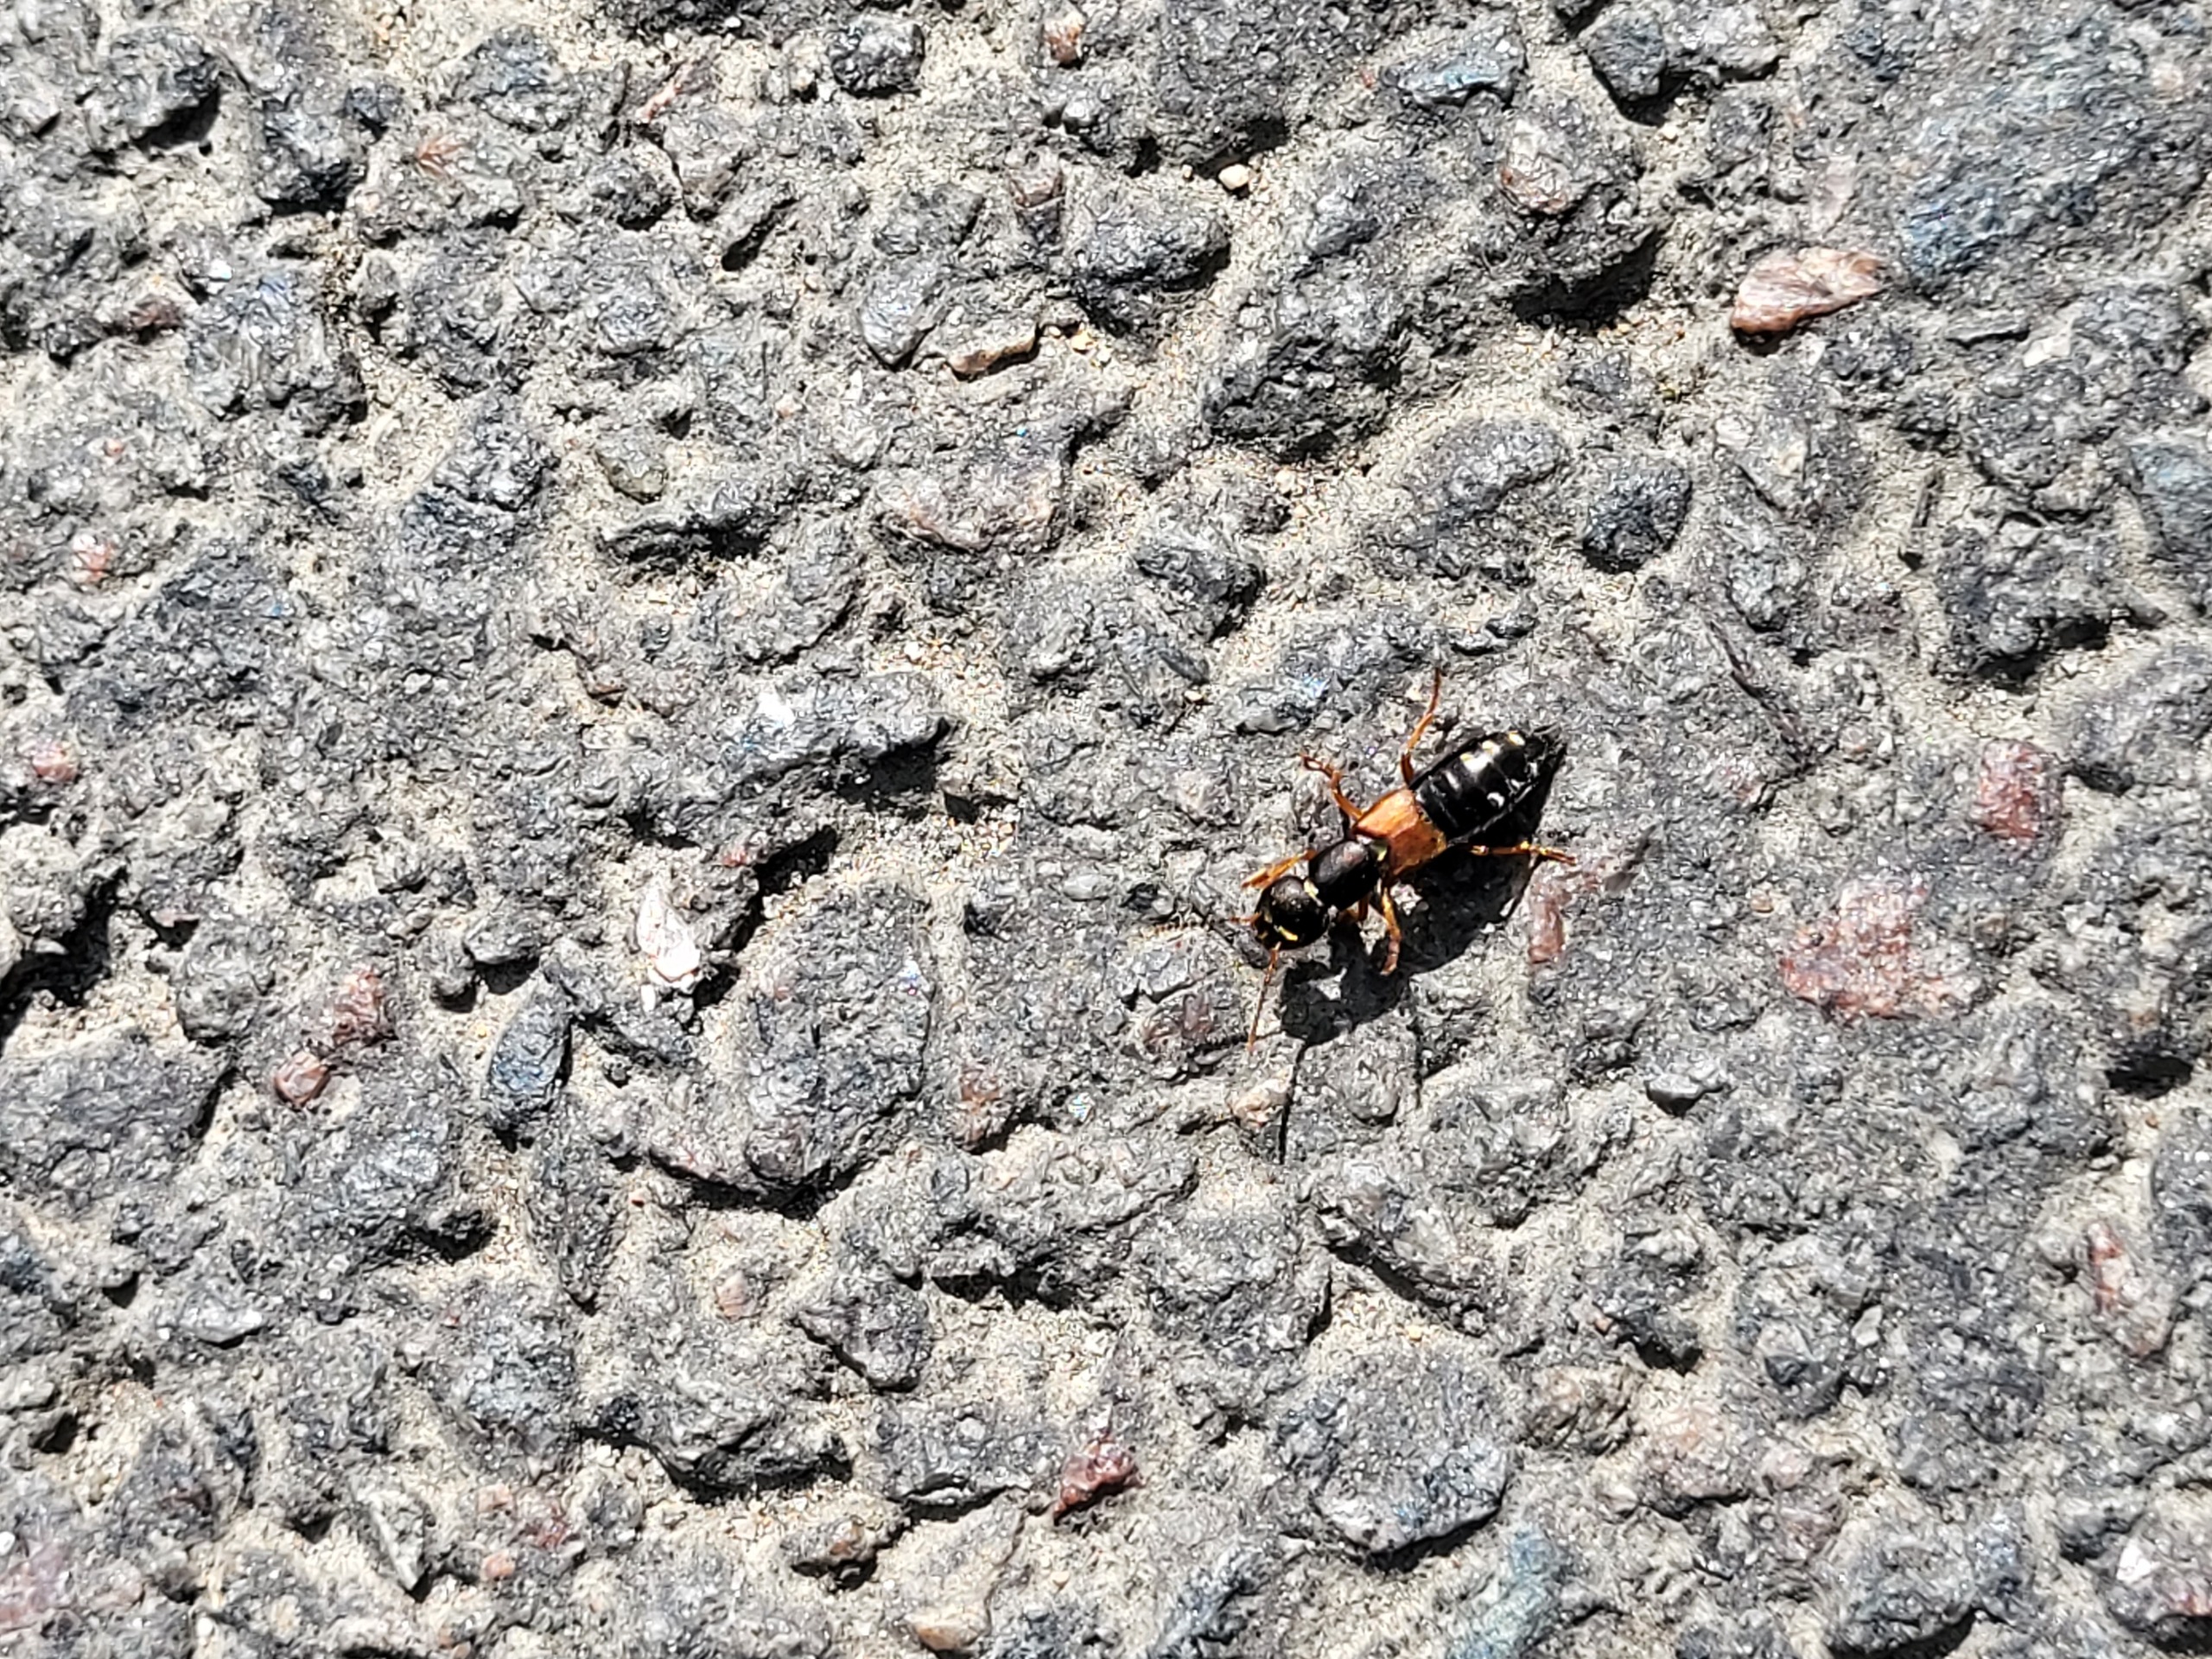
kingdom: Animalia
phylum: Arthropoda
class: Insecta
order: Coleoptera
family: Staphylinidae
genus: Staphylinus
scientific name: Staphylinus erythropterus
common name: Rødvinget rovbille
